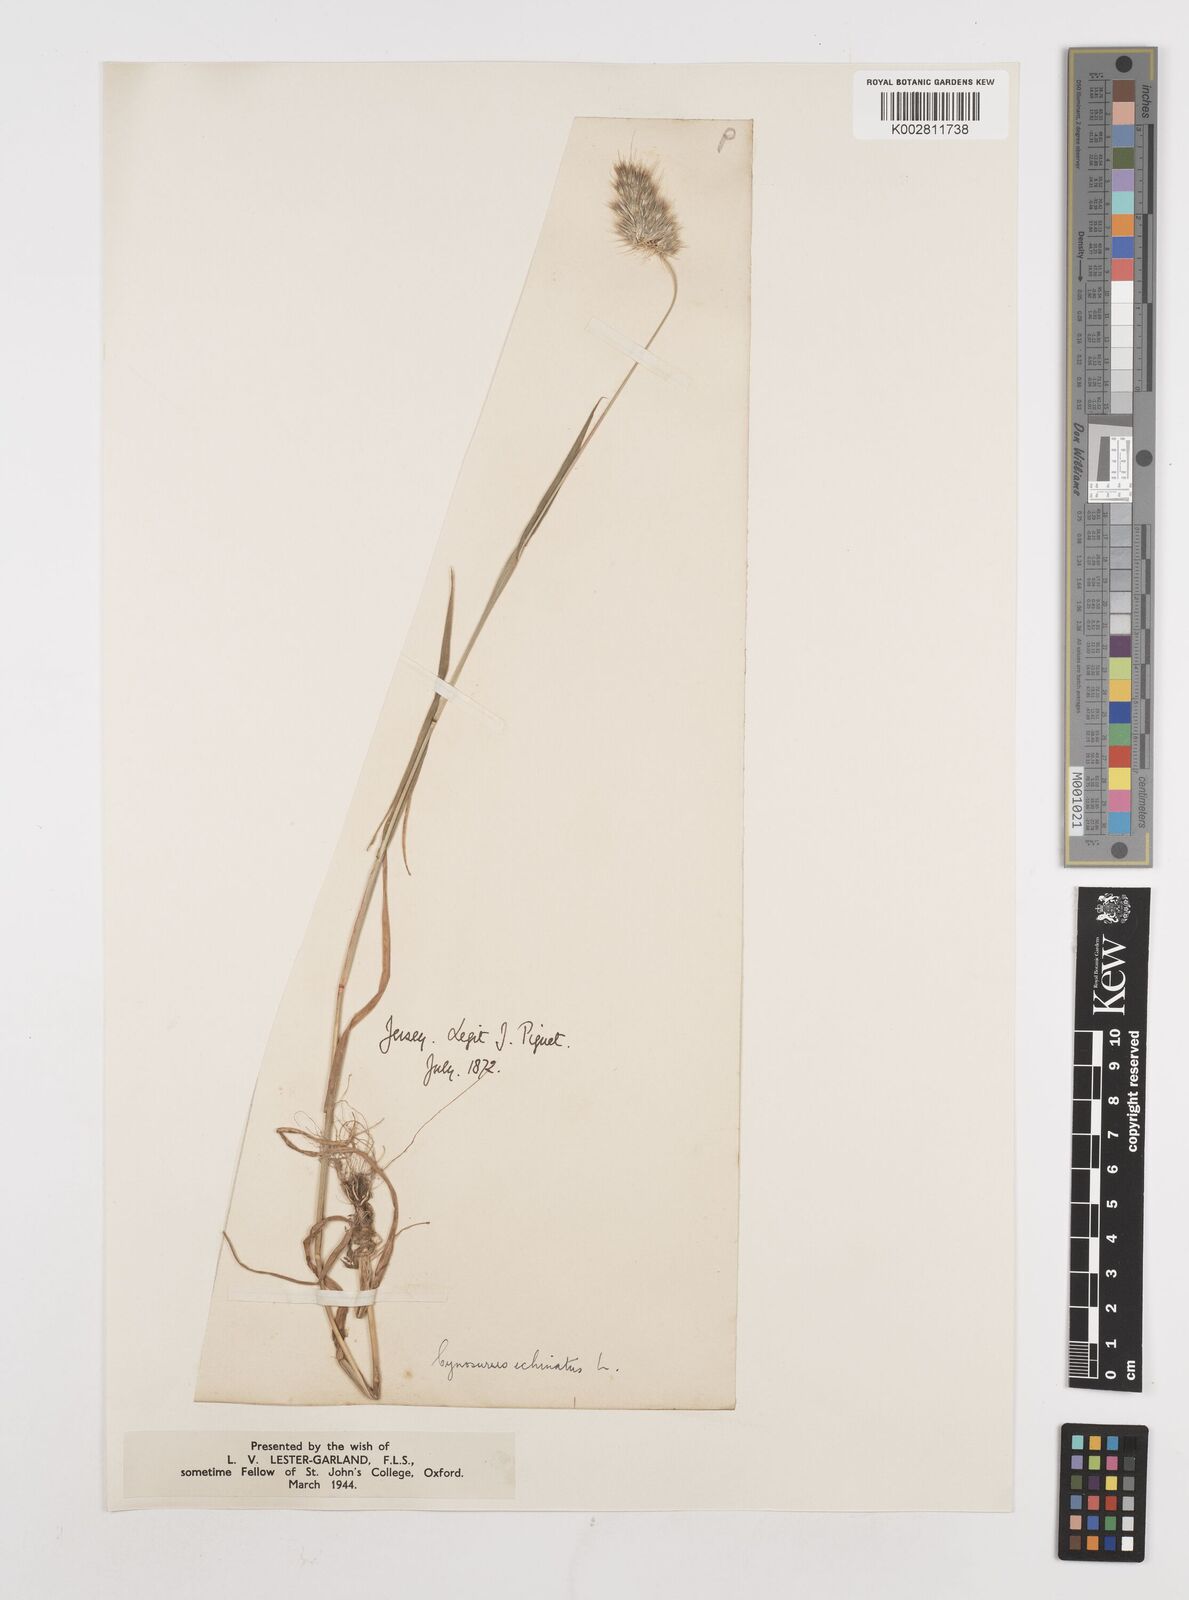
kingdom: Plantae
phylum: Tracheophyta
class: Liliopsida
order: Poales
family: Poaceae
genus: Cynosurus
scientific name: Cynosurus echinatus
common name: Rough dog's-tail
